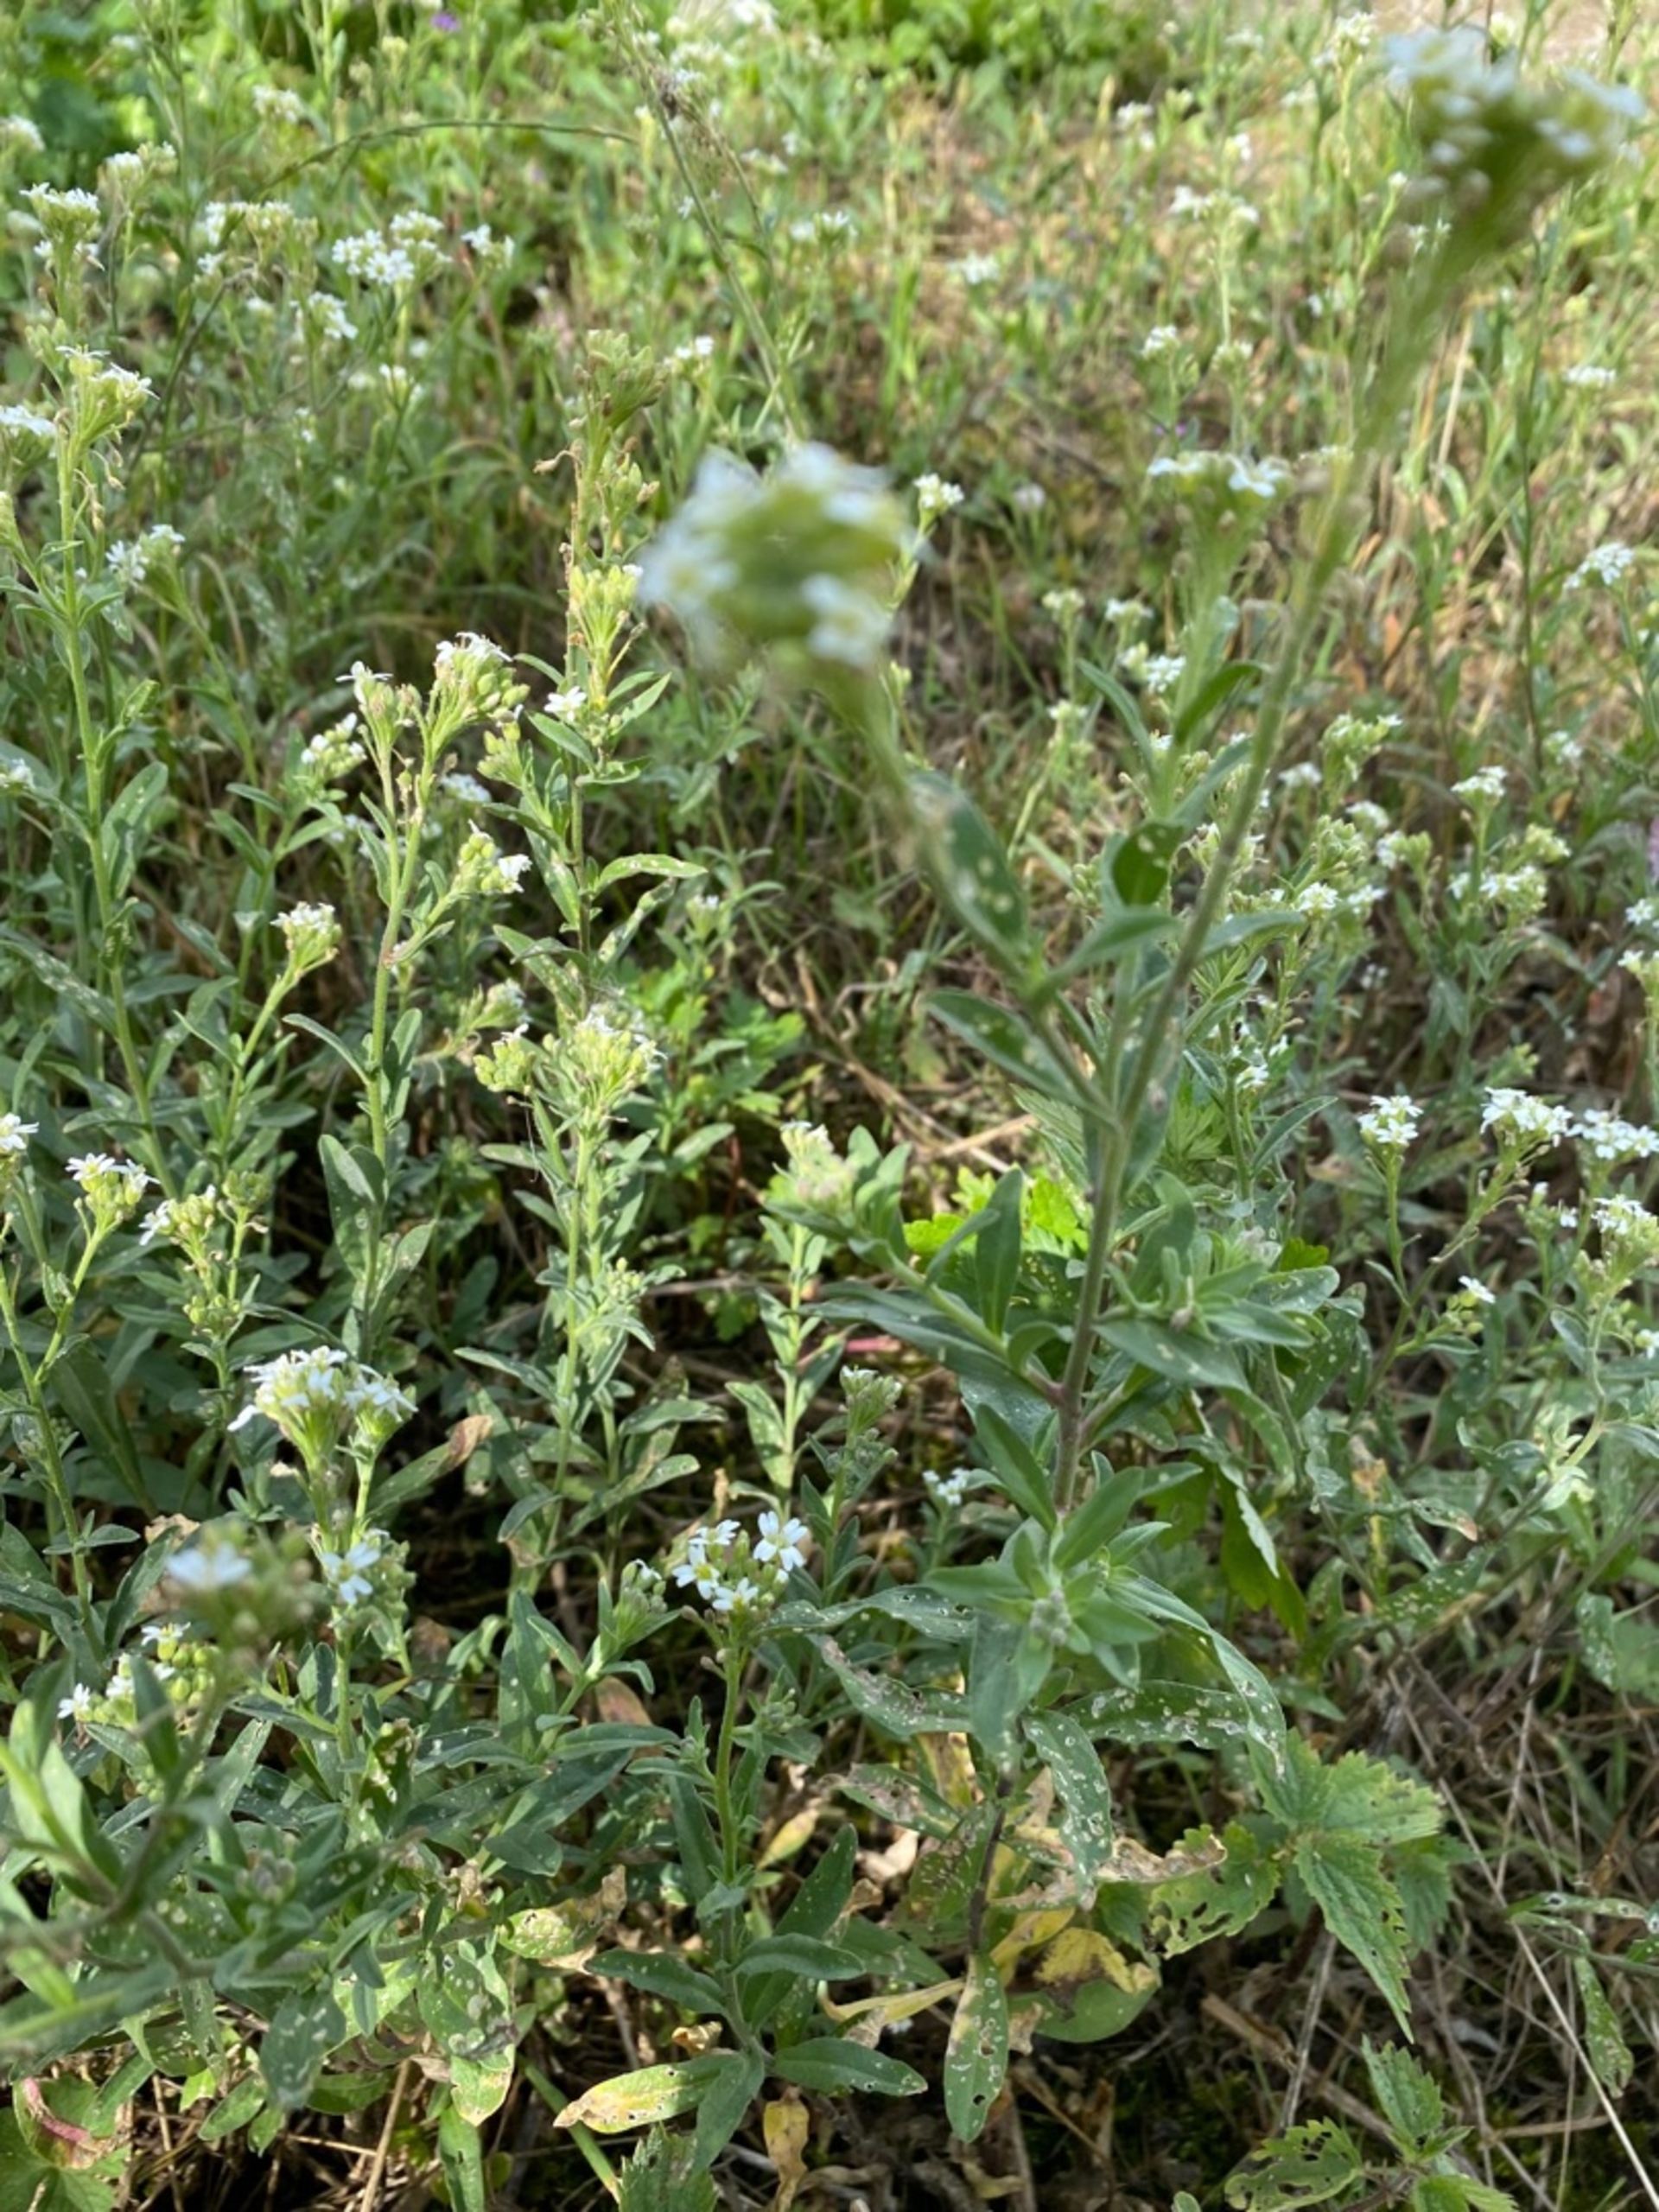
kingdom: Plantae
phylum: Tracheophyta
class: Magnoliopsida
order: Brassicales
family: Brassicaceae
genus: Berteroa
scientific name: Berteroa incana
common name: Kløvplade
